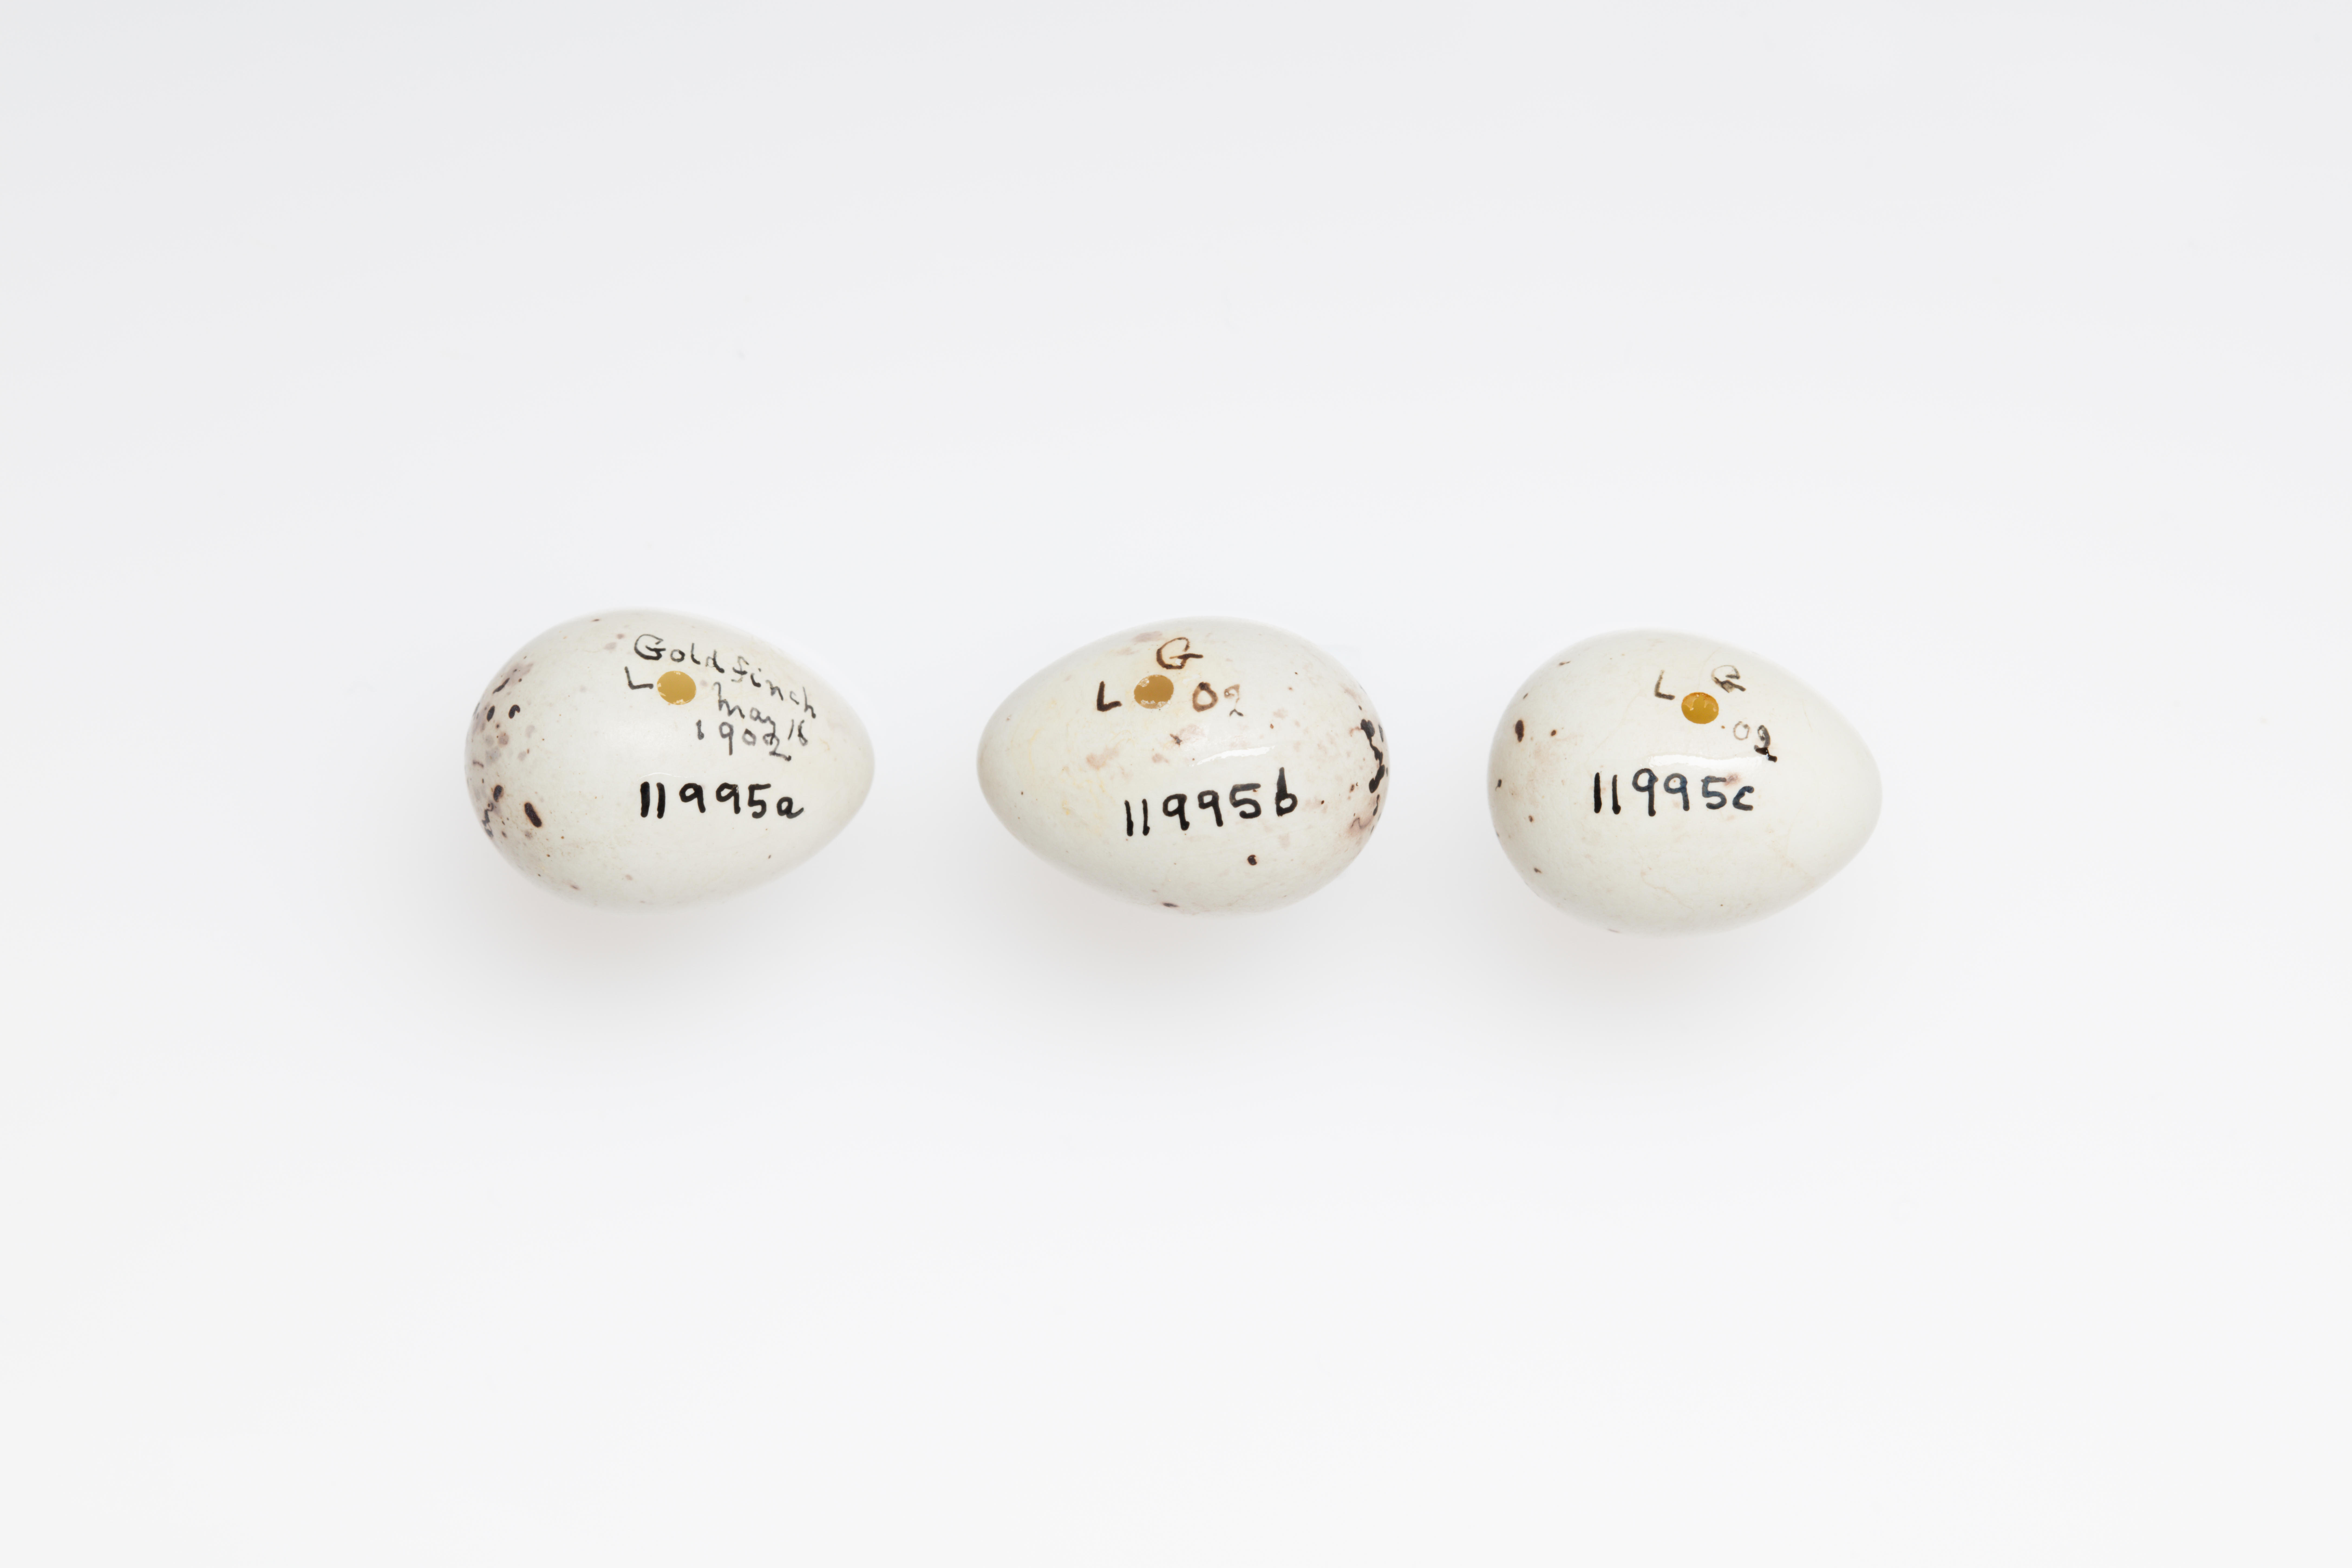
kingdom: Animalia
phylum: Chordata
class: Aves
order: Passeriformes
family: Fringillidae
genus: Carduelis
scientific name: Carduelis carduelis
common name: European goldfinch
